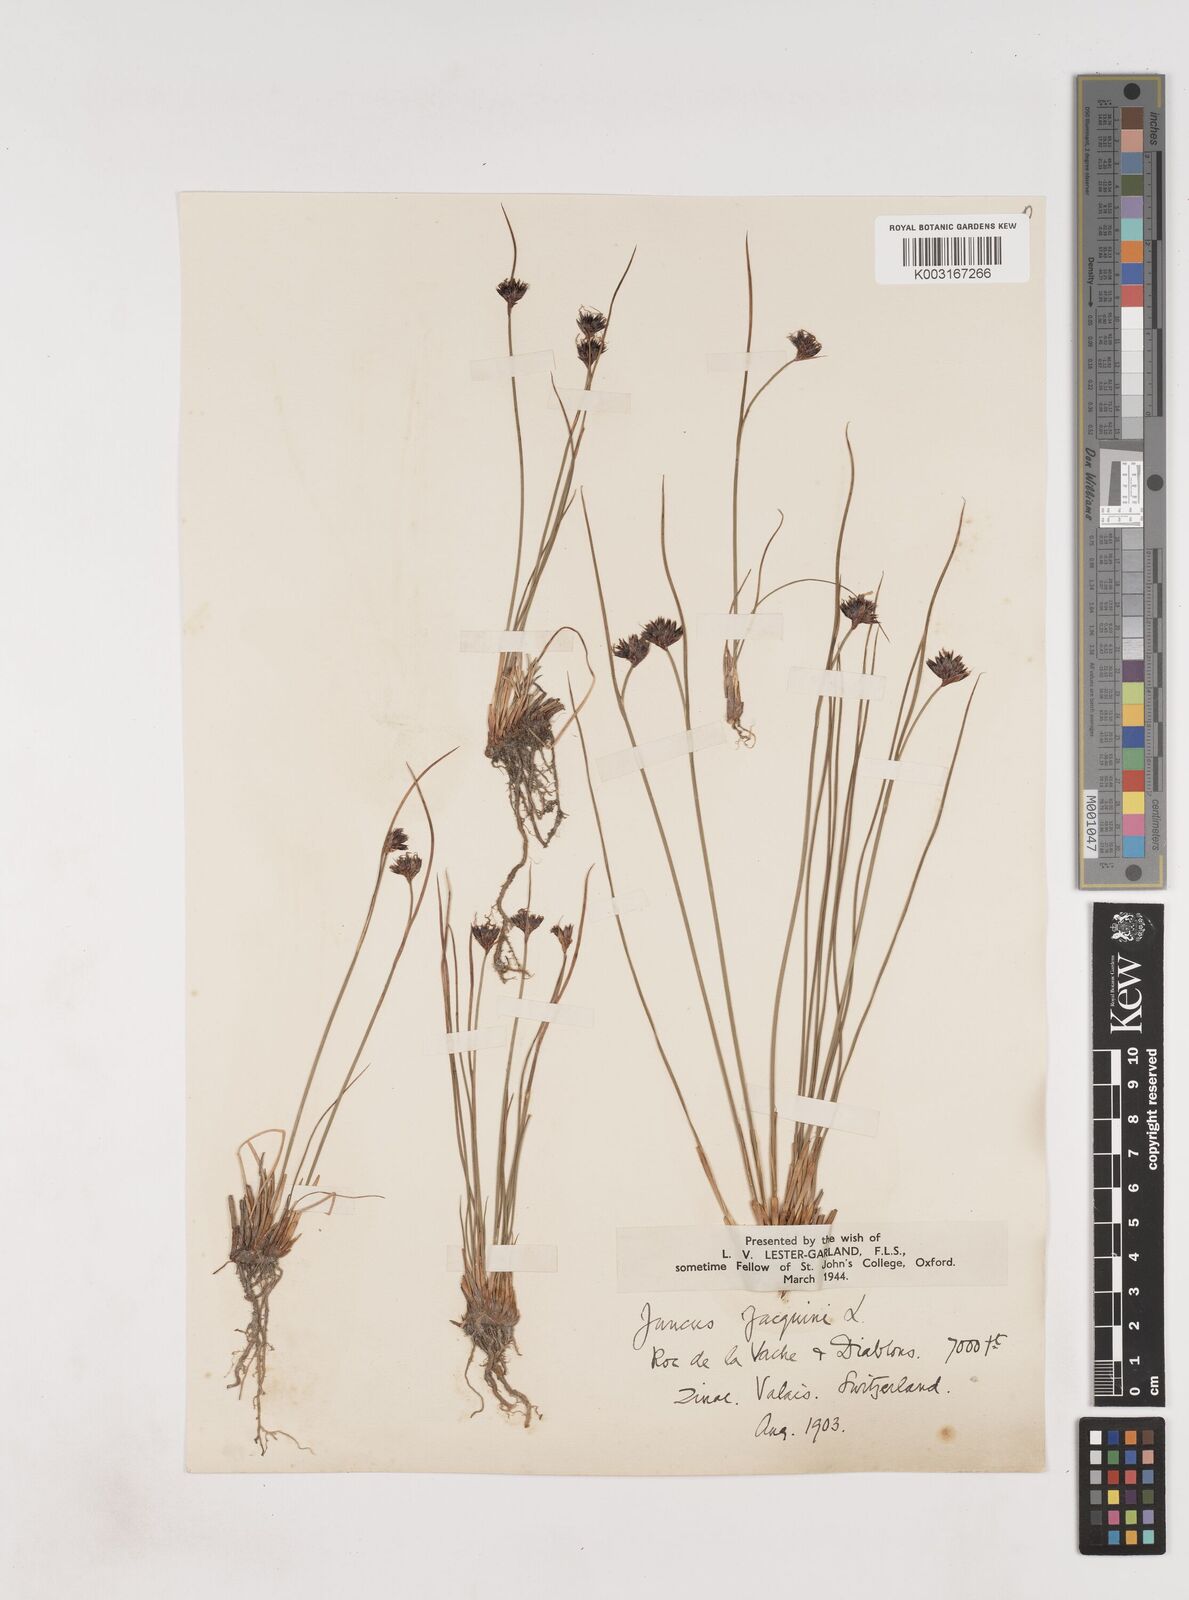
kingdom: Plantae
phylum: Tracheophyta
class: Liliopsida
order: Poales
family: Juncaceae
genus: Juncus
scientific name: Juncus jacquinii
